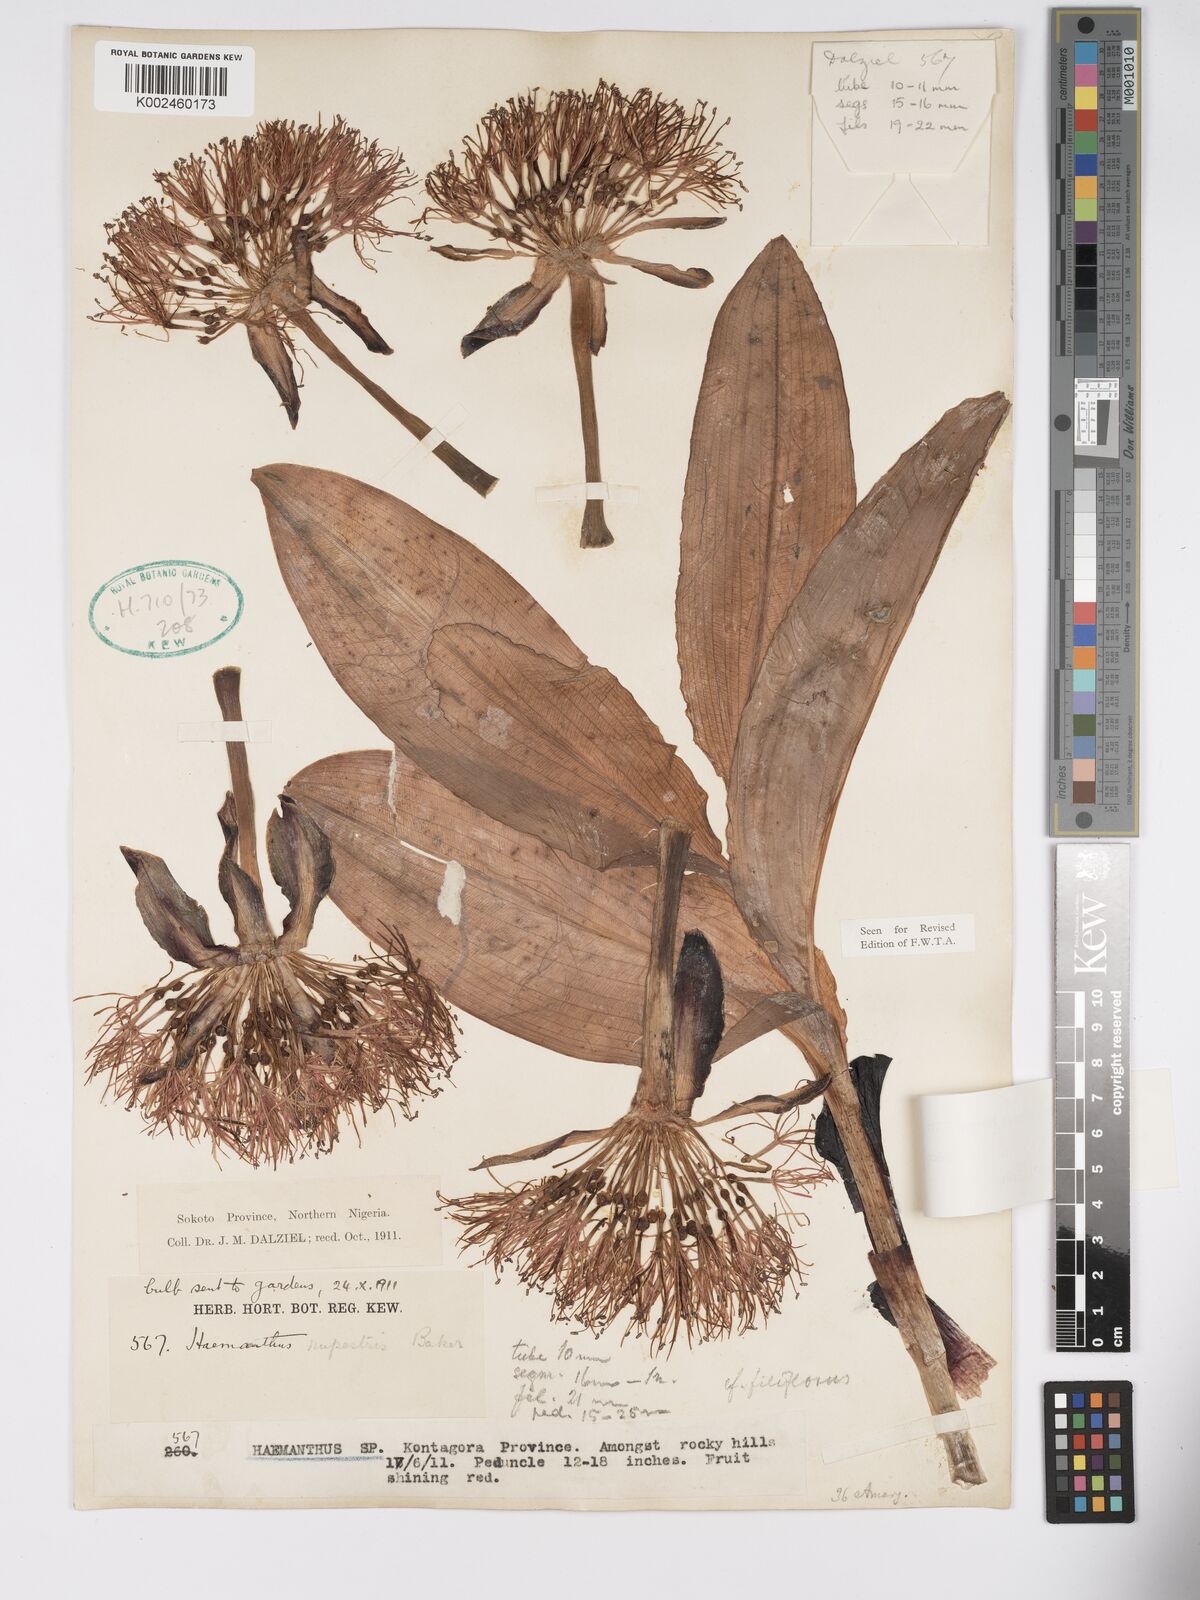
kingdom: Plantae
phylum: Tracheophyta
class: Liliopsida
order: Asparagales
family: Amaryllidaceae
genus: Scadoxus
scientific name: Scadoxus multiflorus
